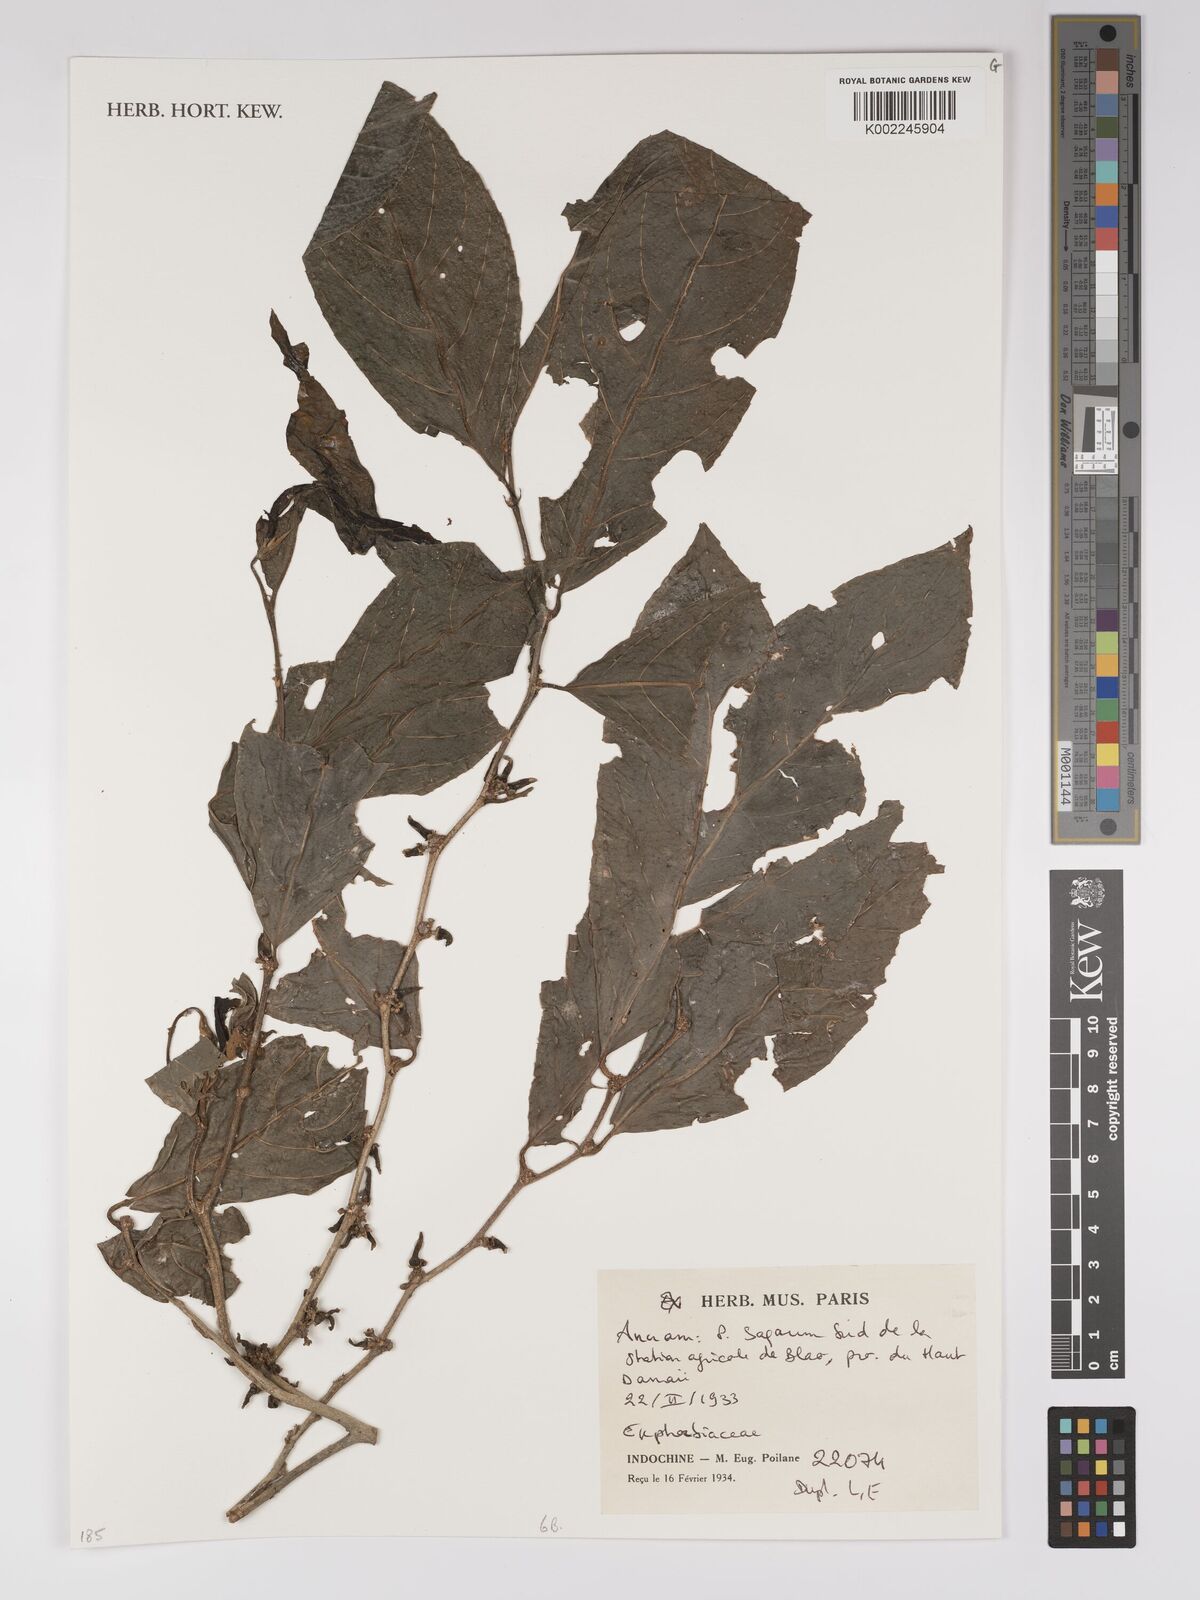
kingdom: Plantae
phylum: Tracheophyta
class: Magnoliopsida
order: Malpighiales
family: Euphorbiaceae
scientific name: Euphorbiaceae
